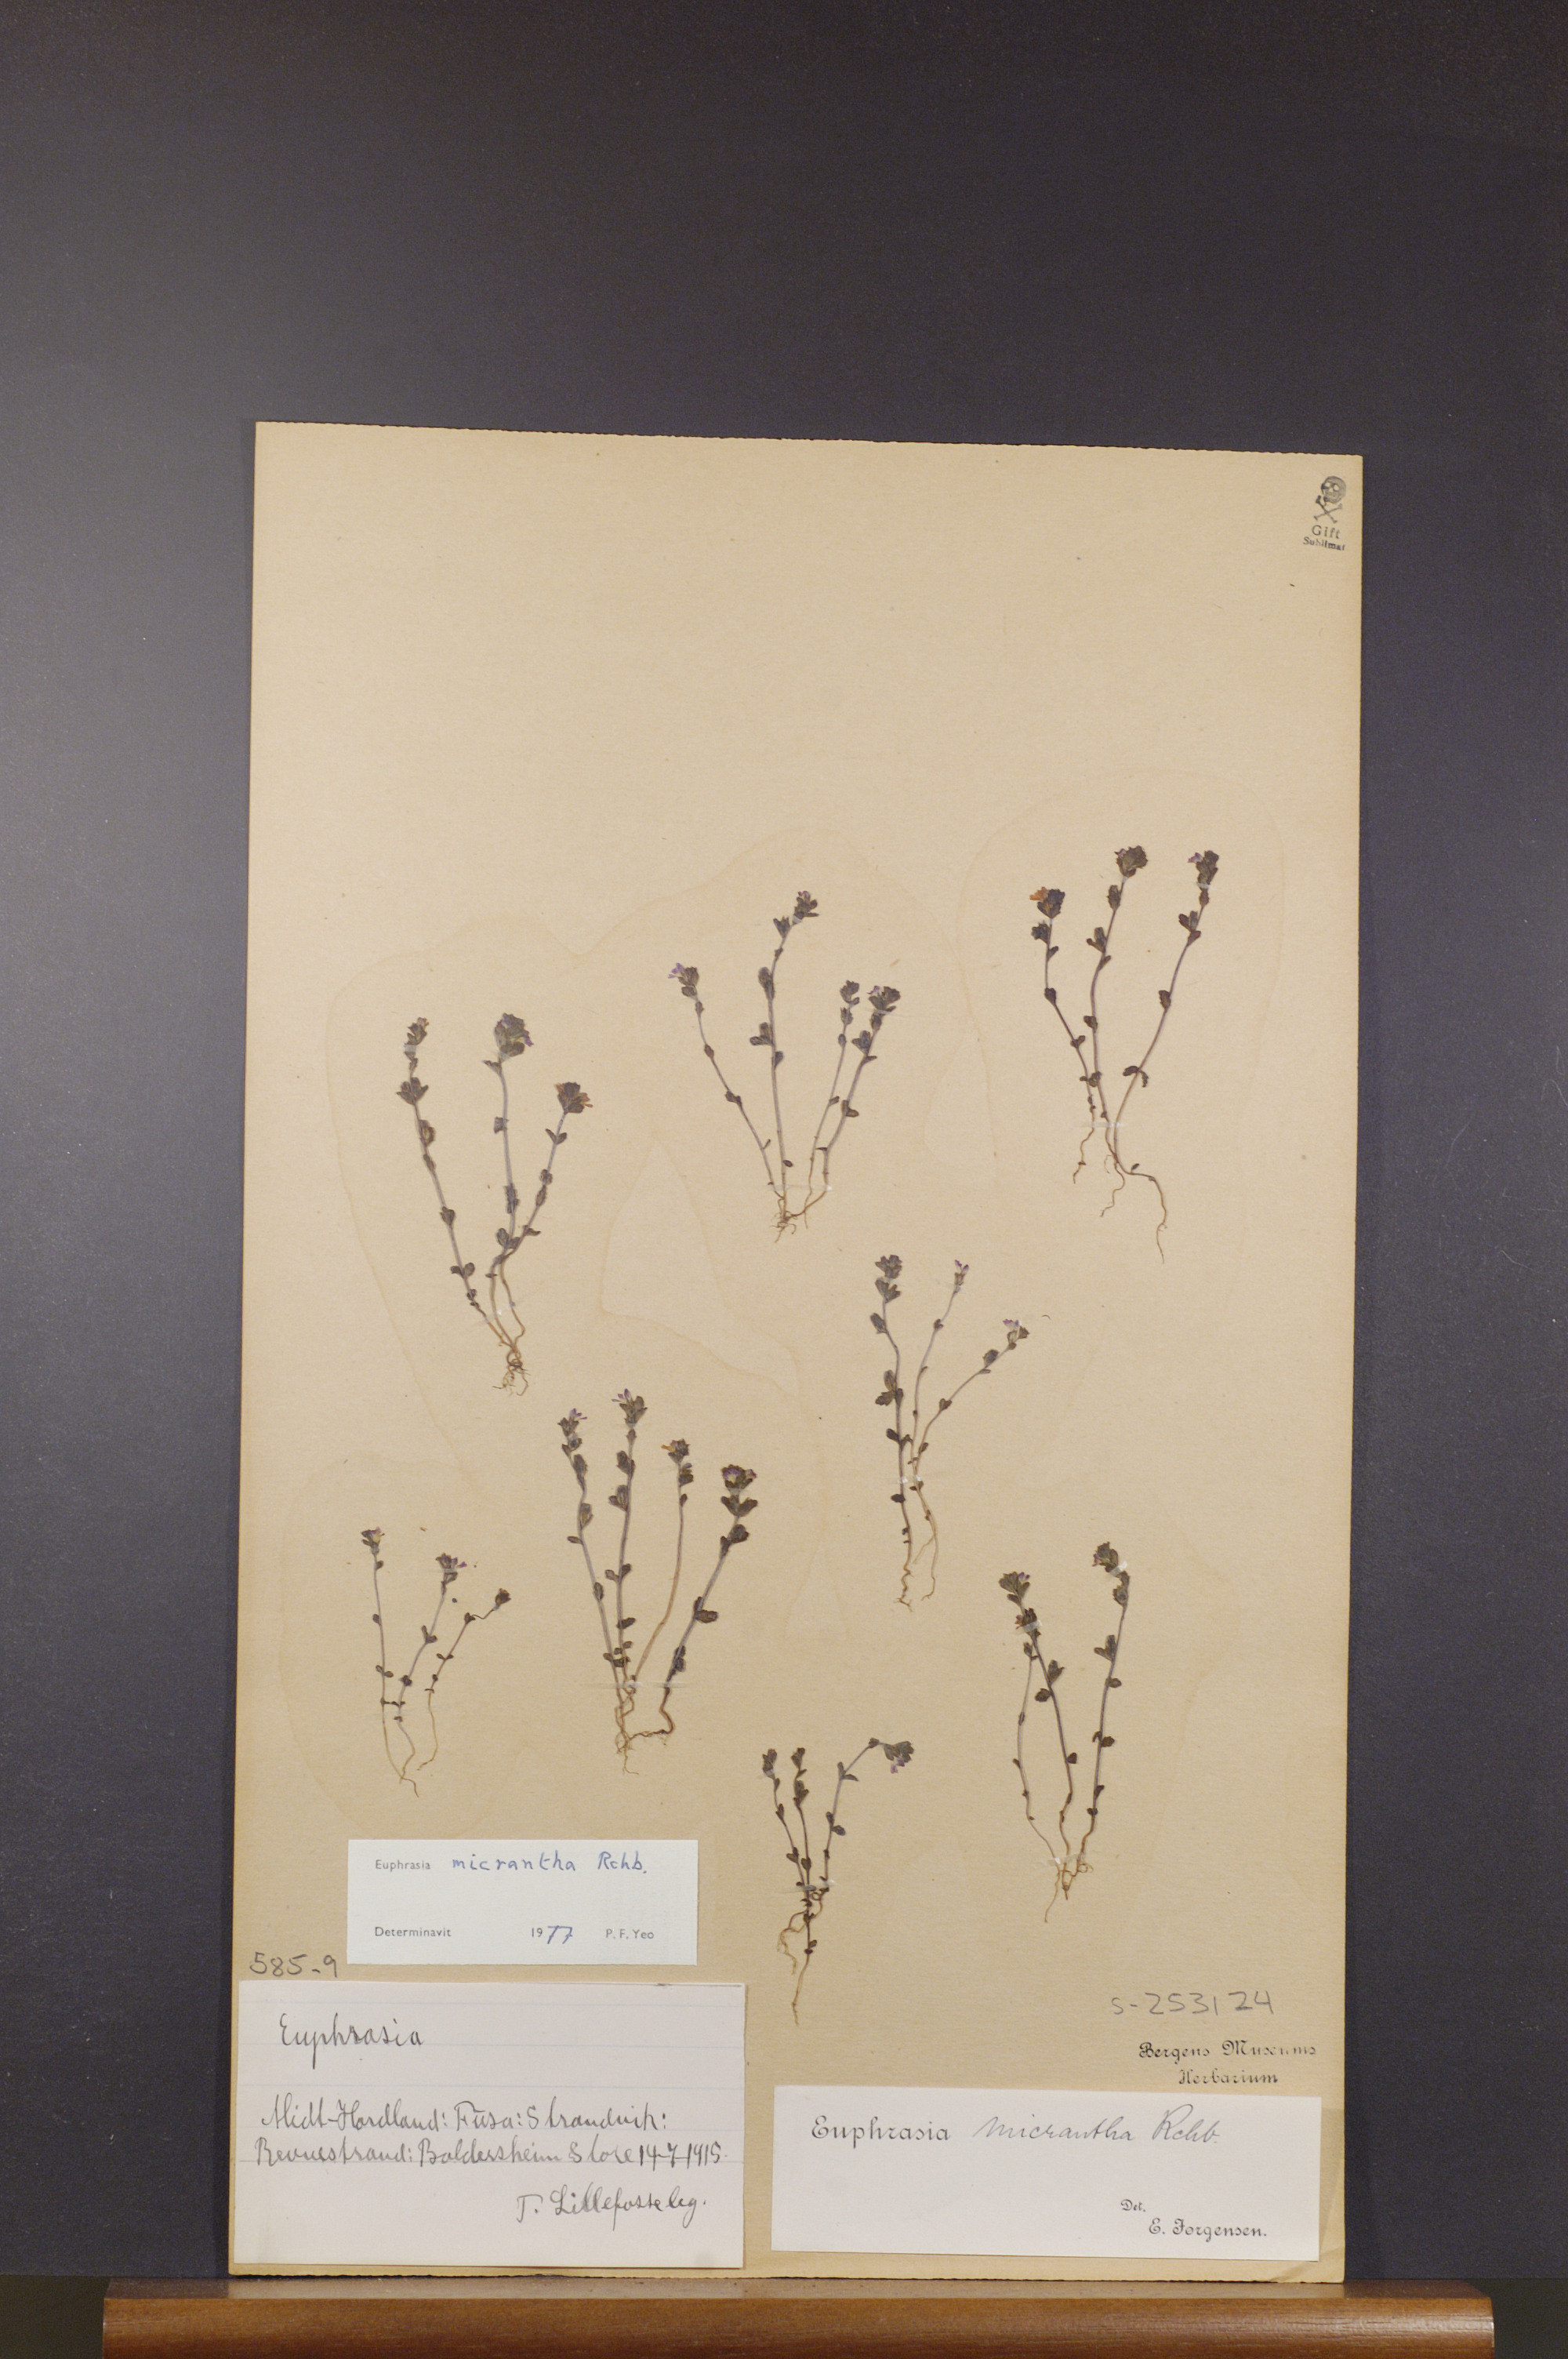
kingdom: Plantae
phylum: Tracheophyta
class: Magnoliopsida
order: Lamiales
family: Orobanchaceae
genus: Euphrasia
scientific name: Euphrasia micrantha
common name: Northern eyebright
